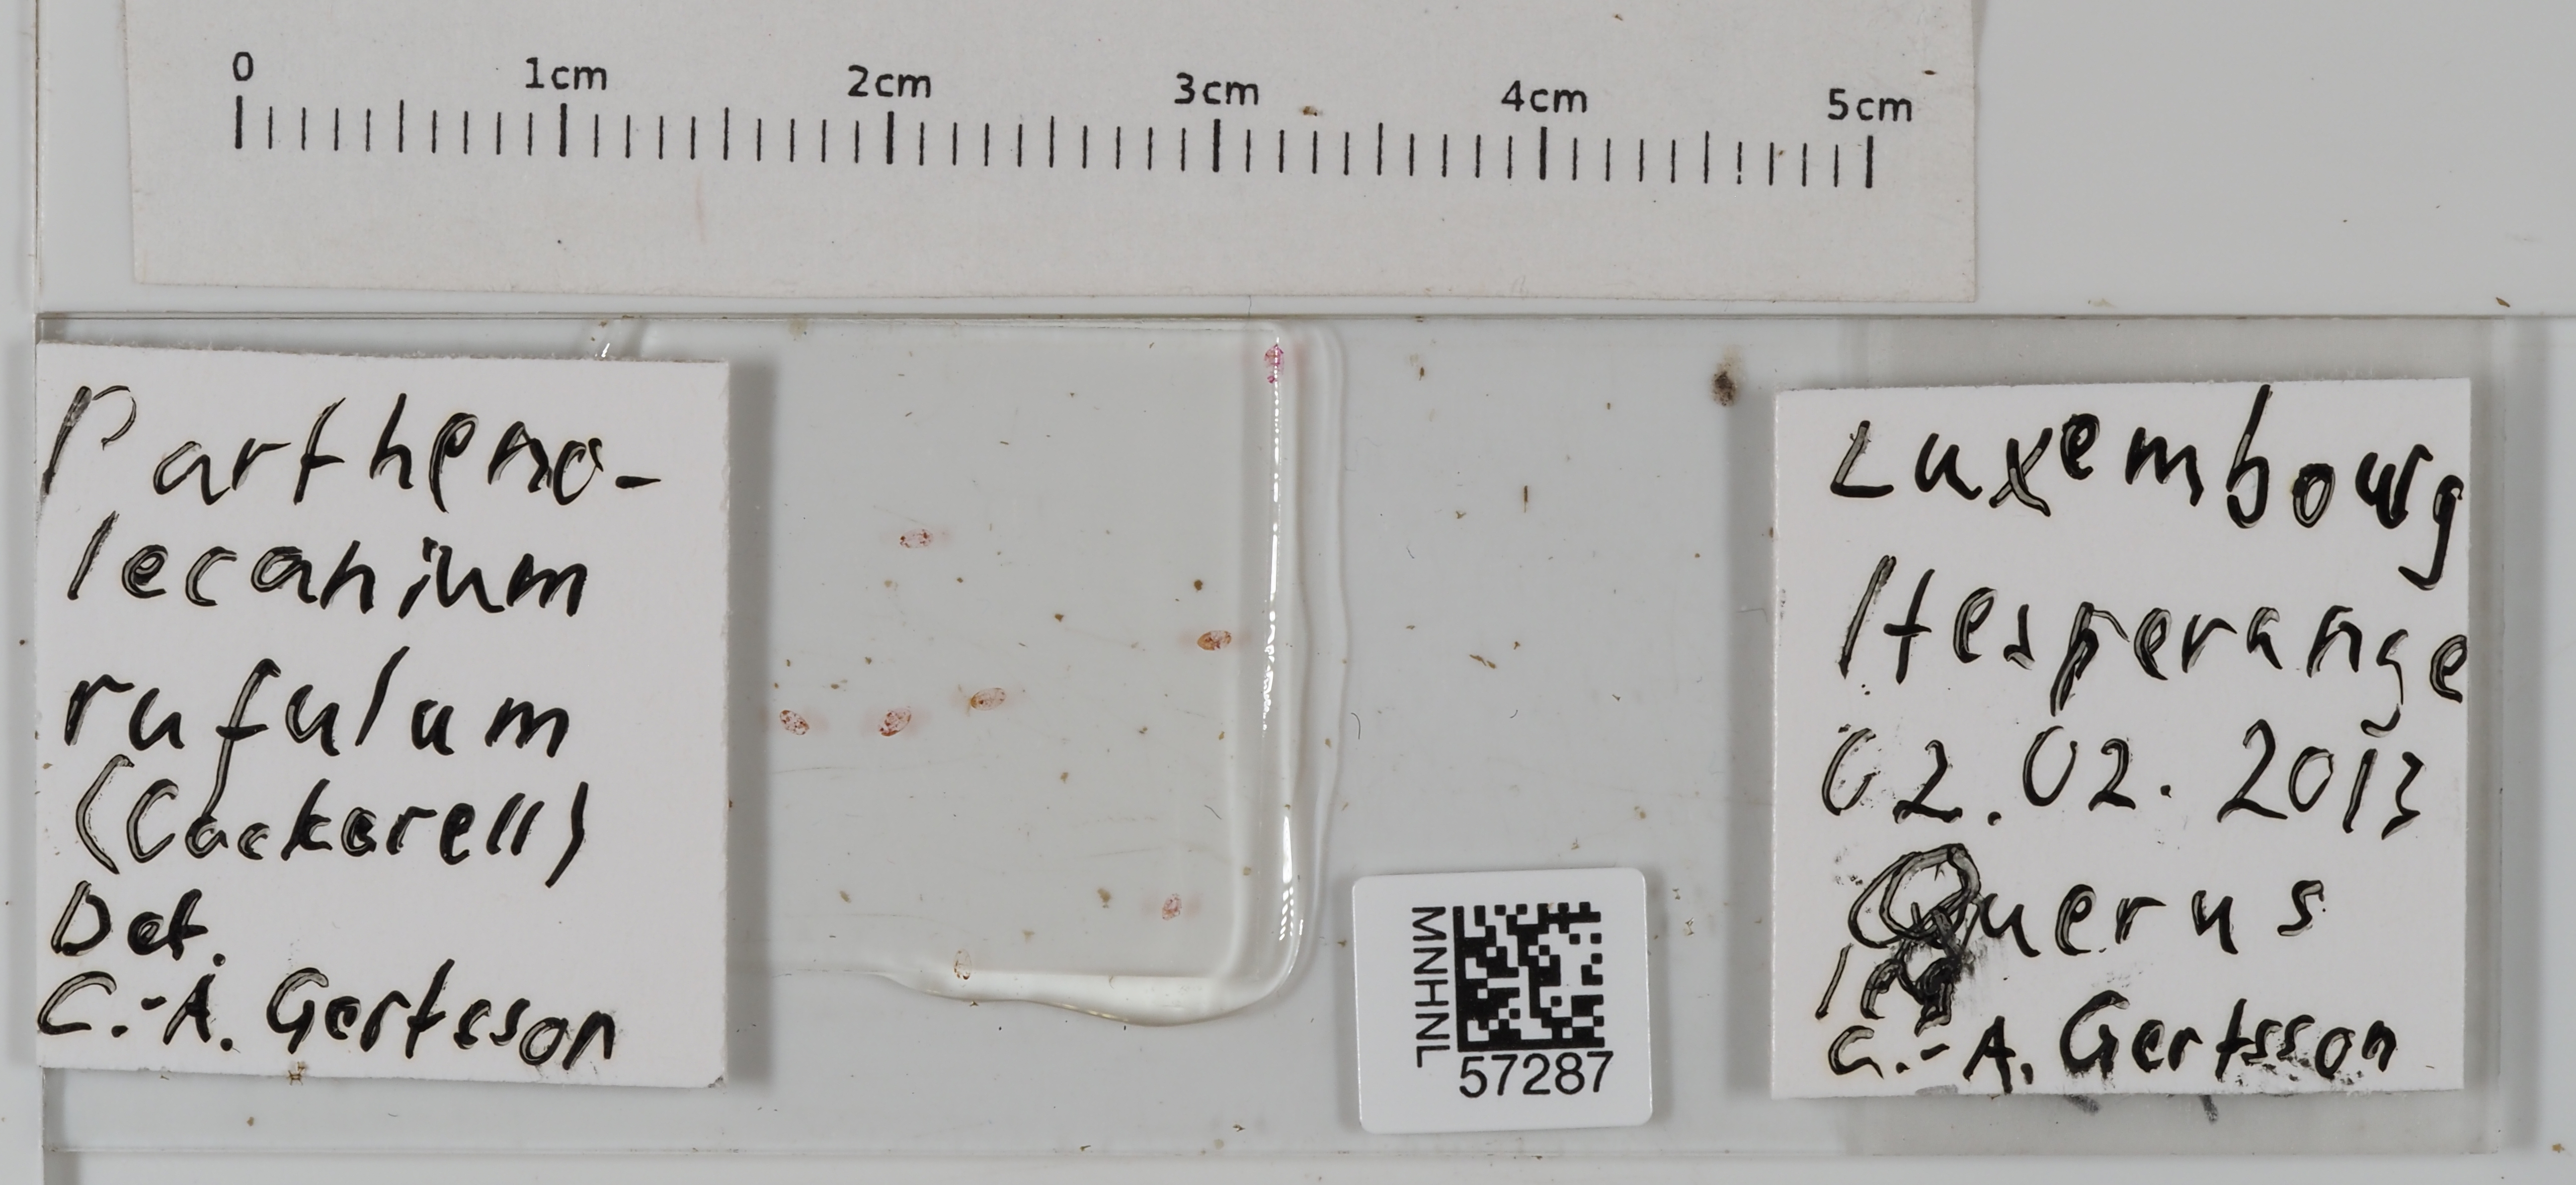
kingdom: Animalia
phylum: Arthropoda
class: Insecta
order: Hemiptera
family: Coccidae
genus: Parthenolecanium
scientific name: Parthenolecanium rufulum
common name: Oak soft scale
